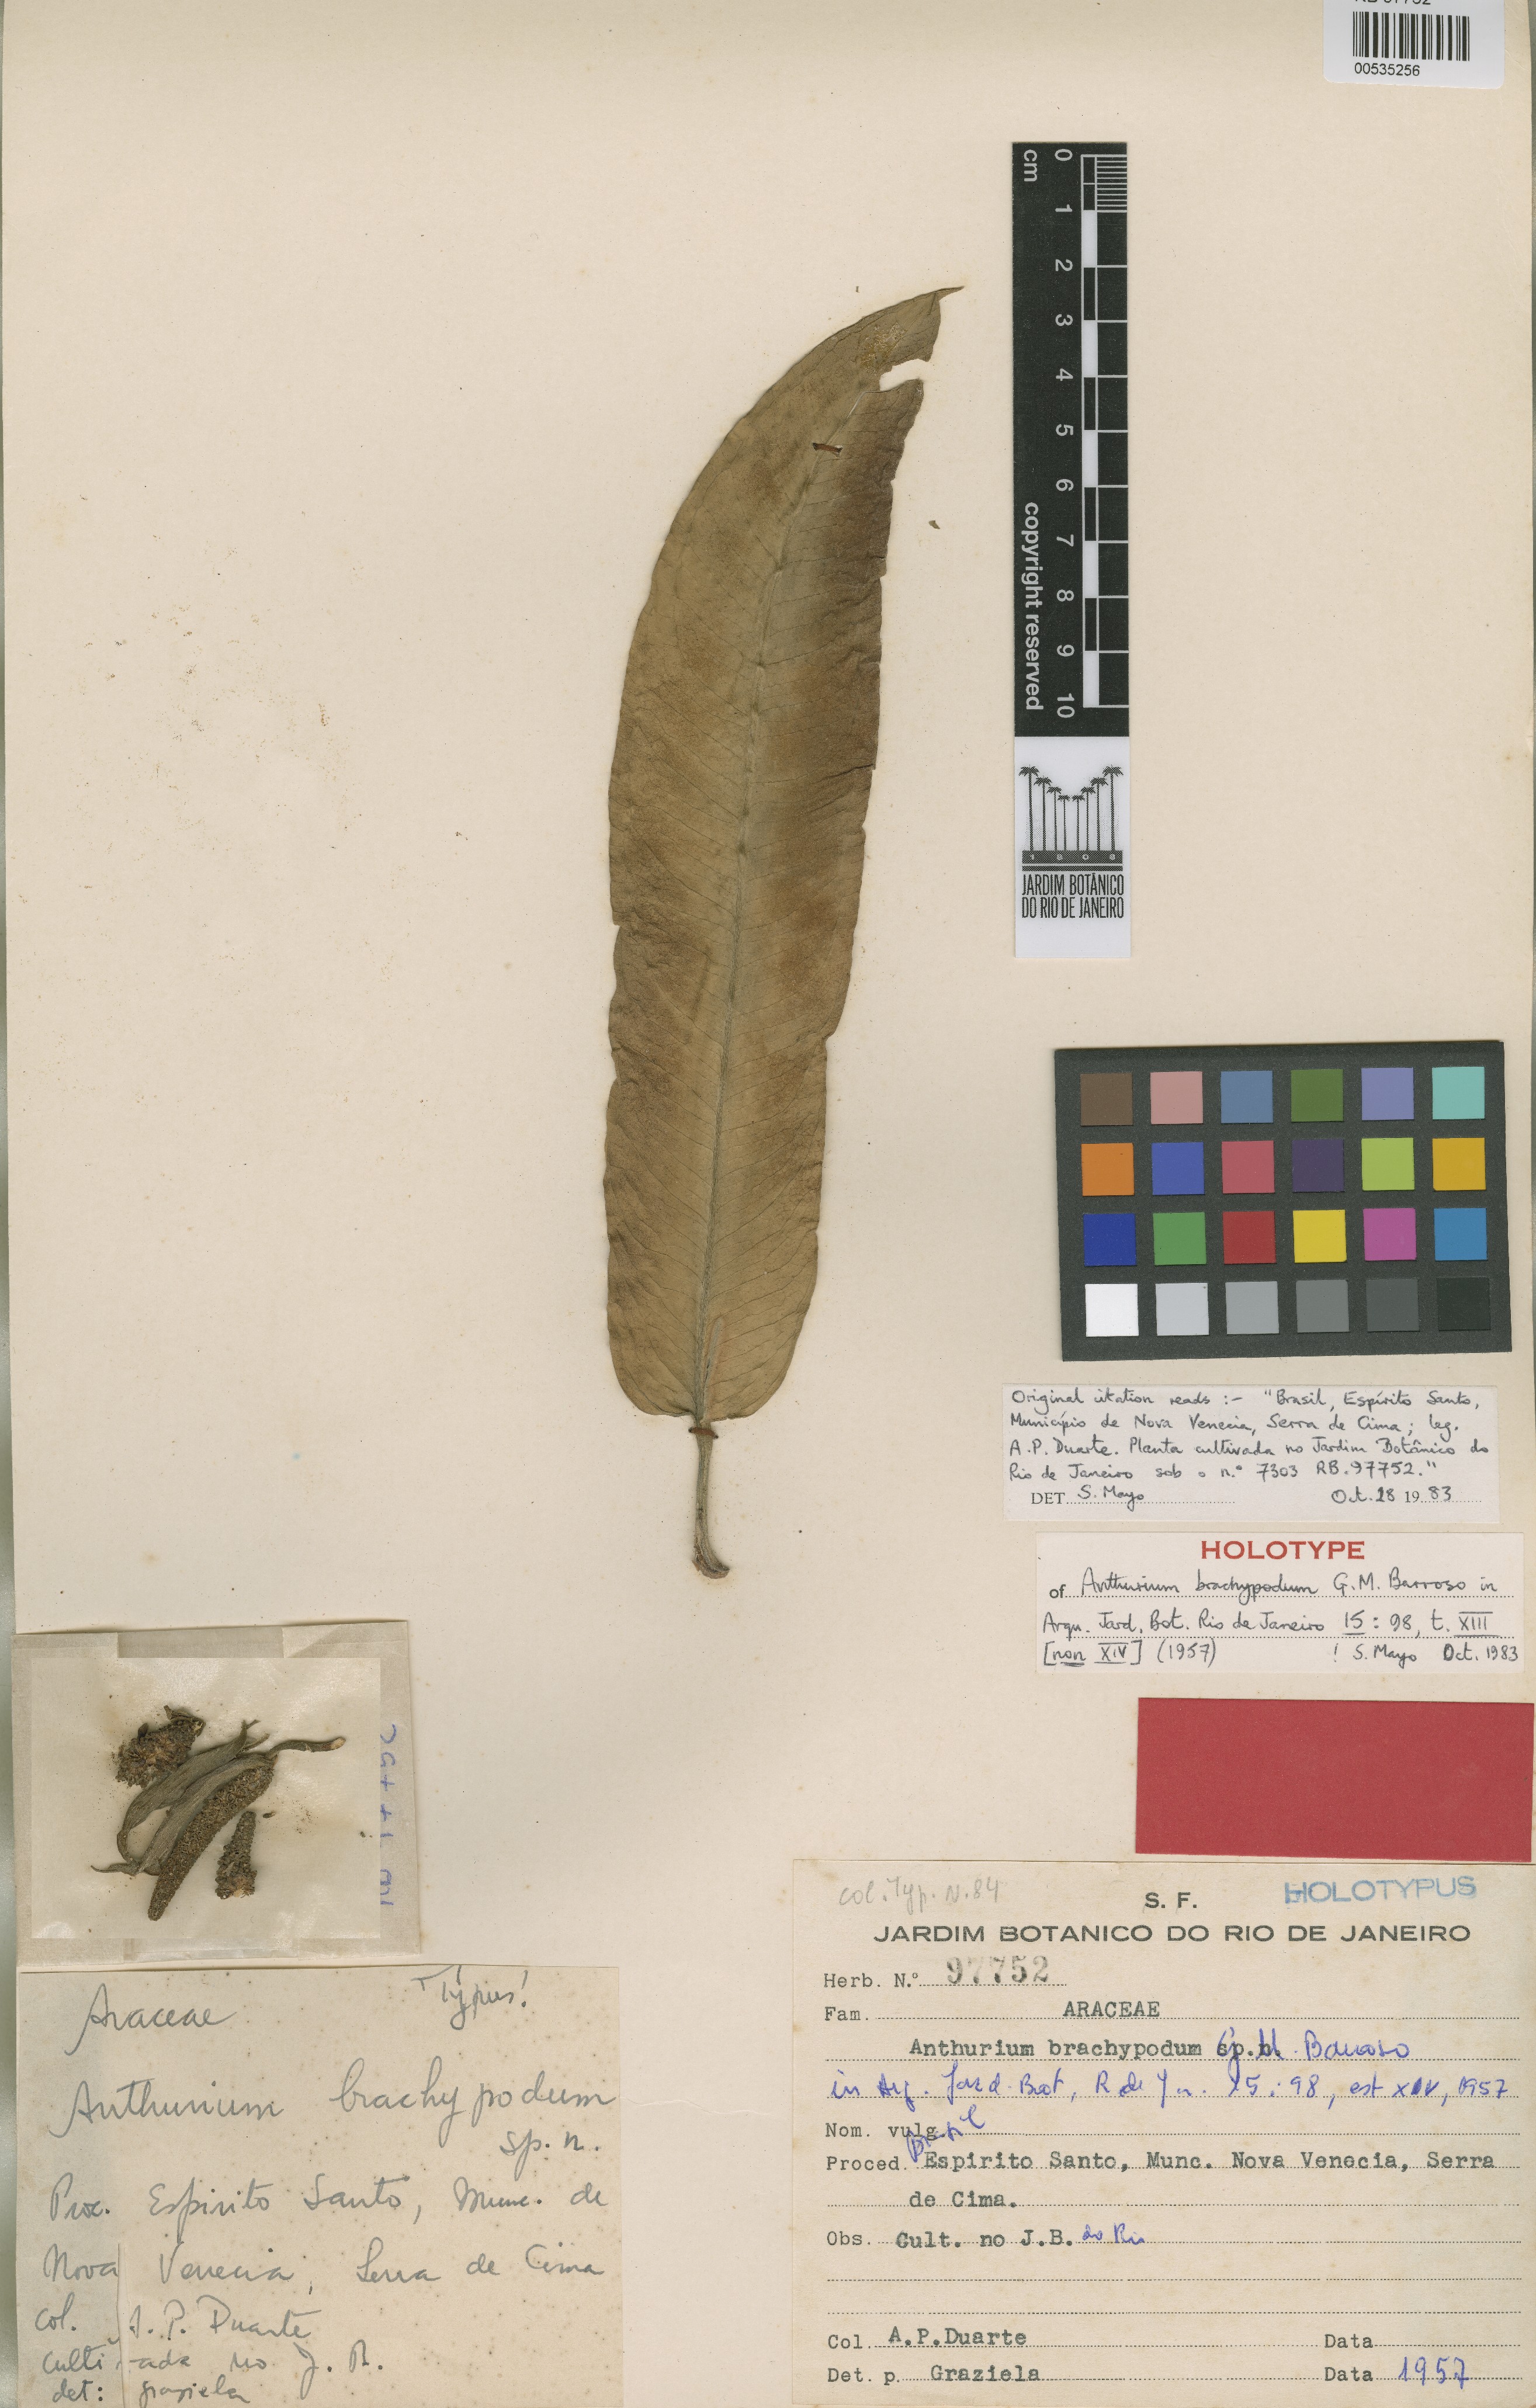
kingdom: Plantae
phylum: Tracheophyta
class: Liliopsida
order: Alismatales
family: Araceae
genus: Anthurium
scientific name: Anthurium truncatum
